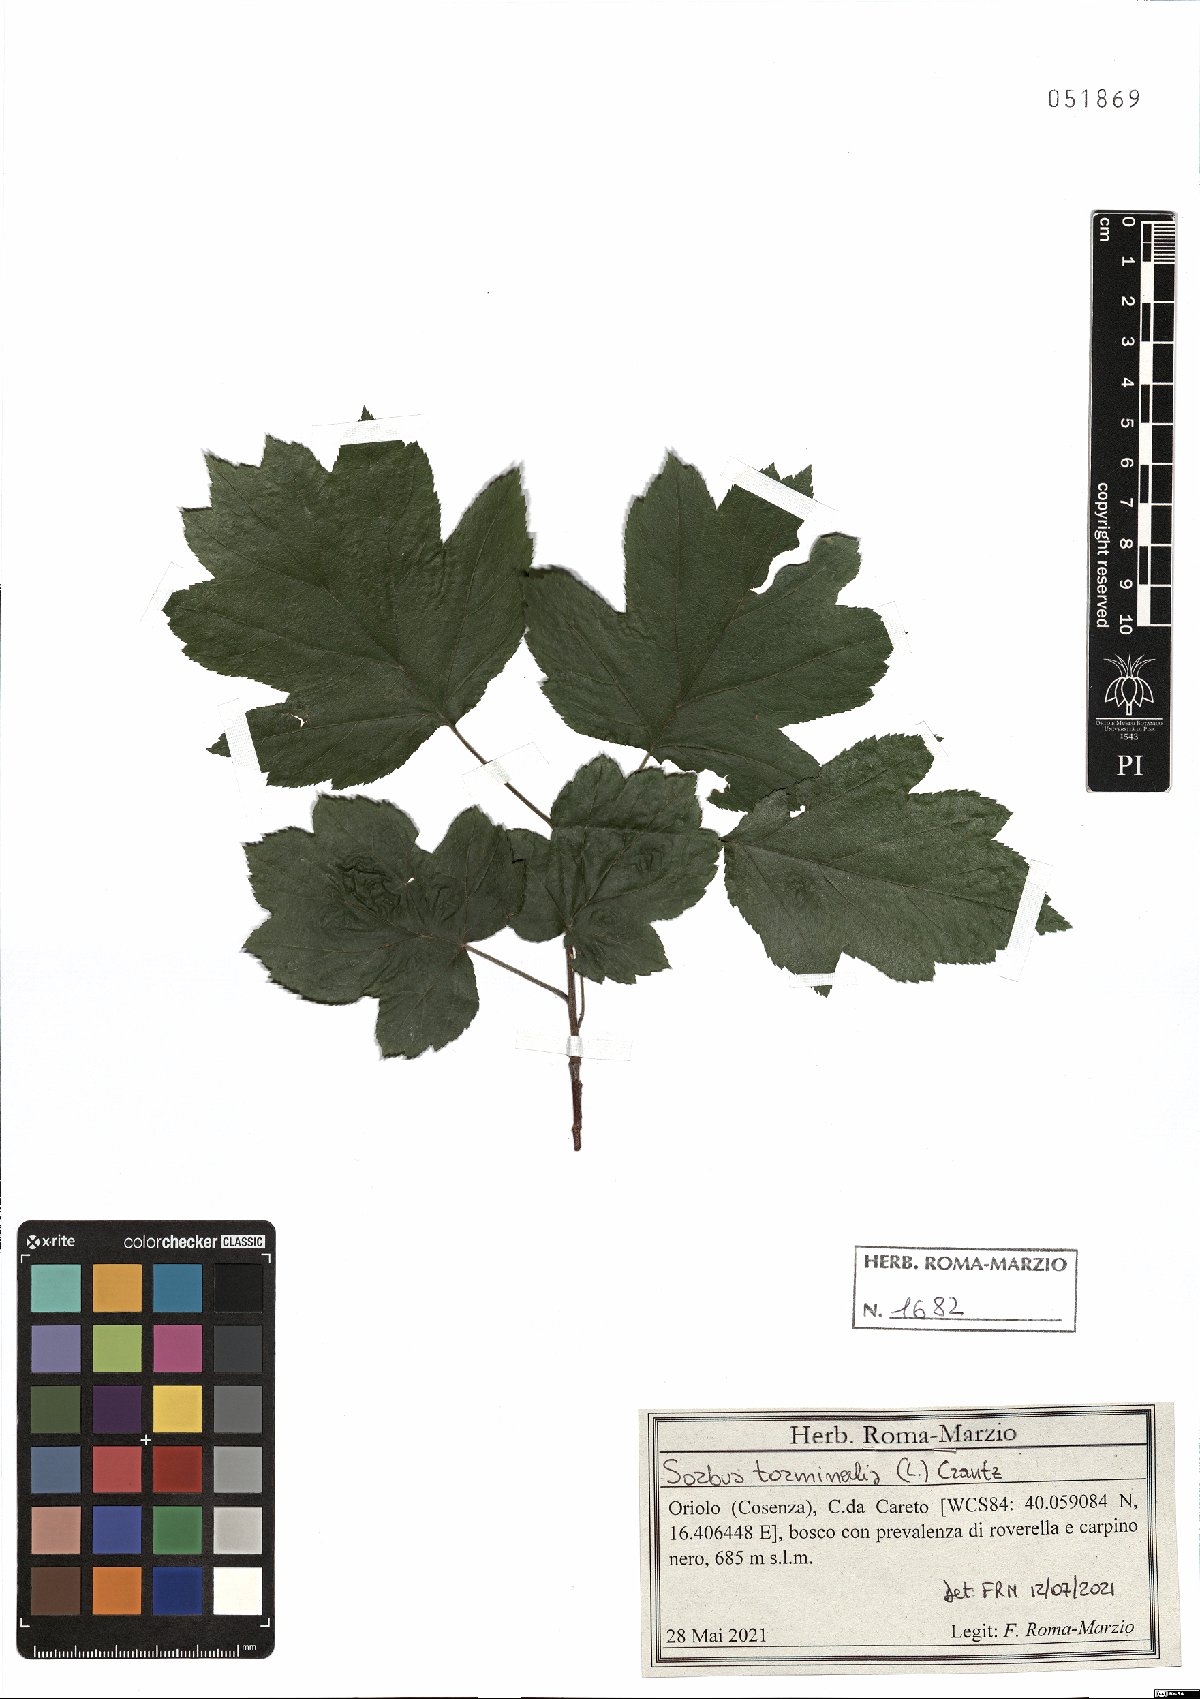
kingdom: Plantae
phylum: Tracheophyta
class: Magnoliopsida
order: Rosales
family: Rosaceae
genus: Torminalis
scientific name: Torminalis glaberrima
